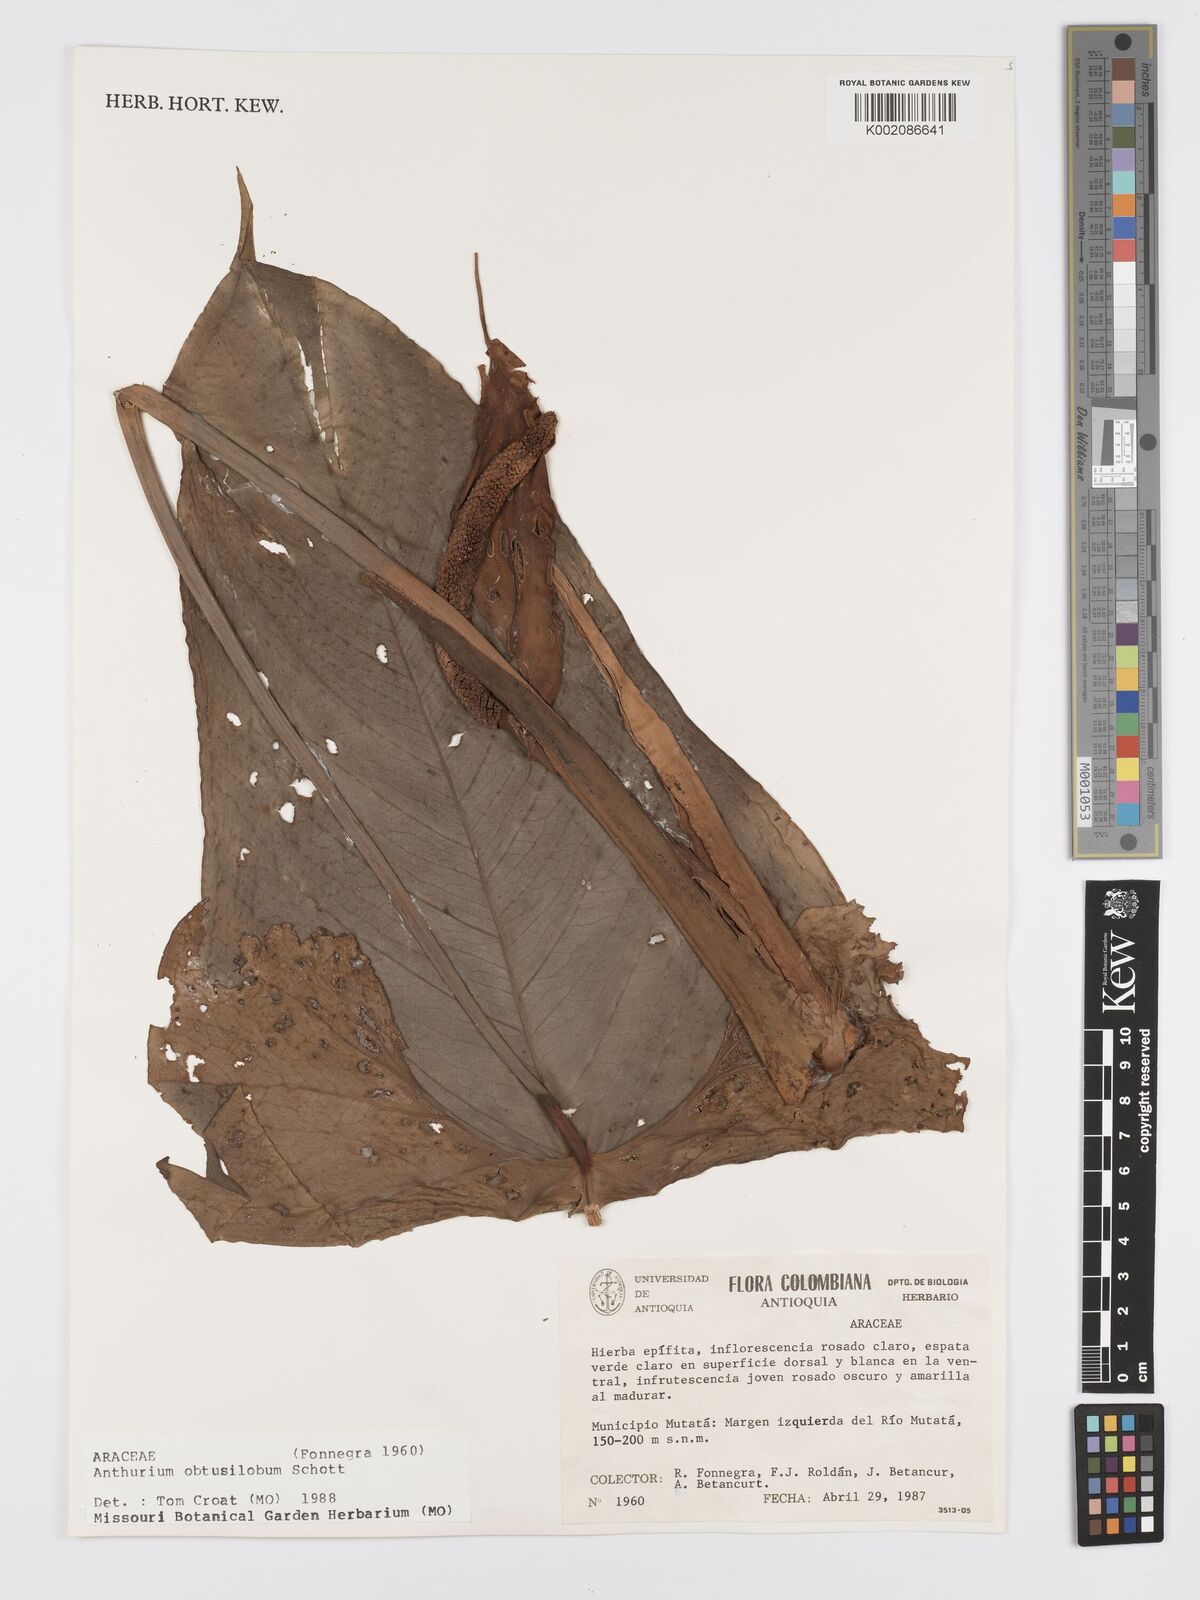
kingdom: Plantae
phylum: Tracheophyta
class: Liliopsida
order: Alismatales
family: Araceae
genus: Anthurium
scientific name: Anthurium obtusilobum
